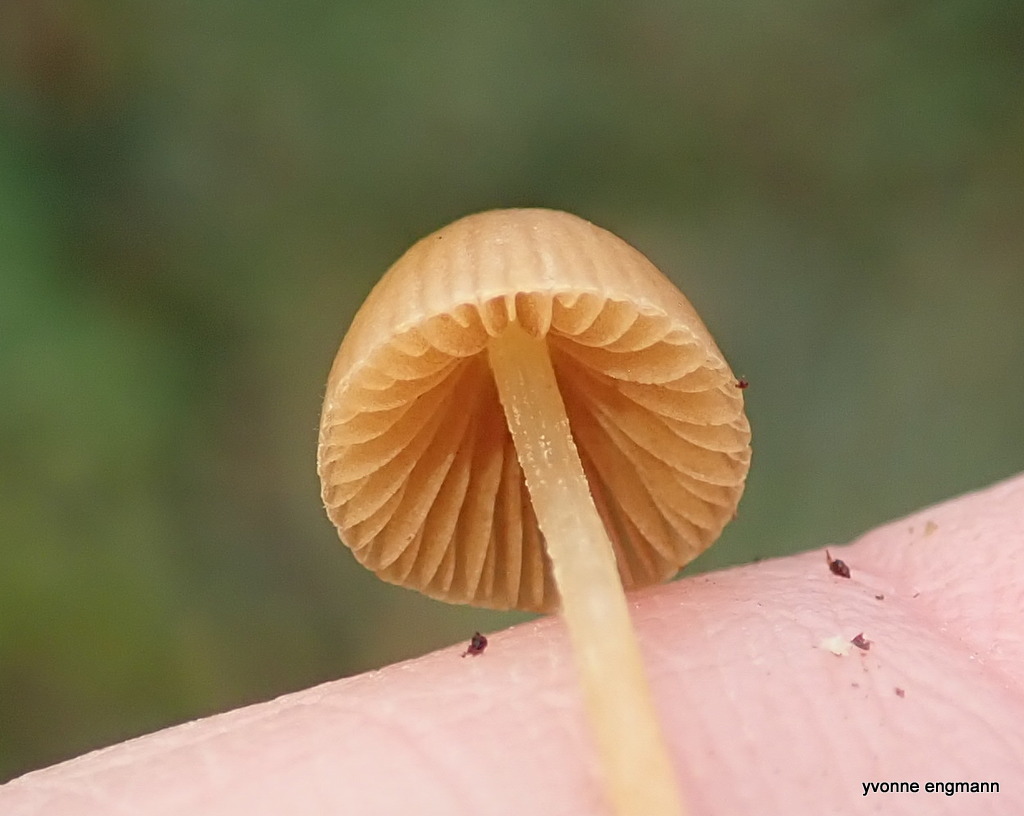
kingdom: Fungi
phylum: Basidiomycota
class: Agaricomycetes
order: Agaricales
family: Bolbitiaceae
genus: Conocybe
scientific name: Conocybe
